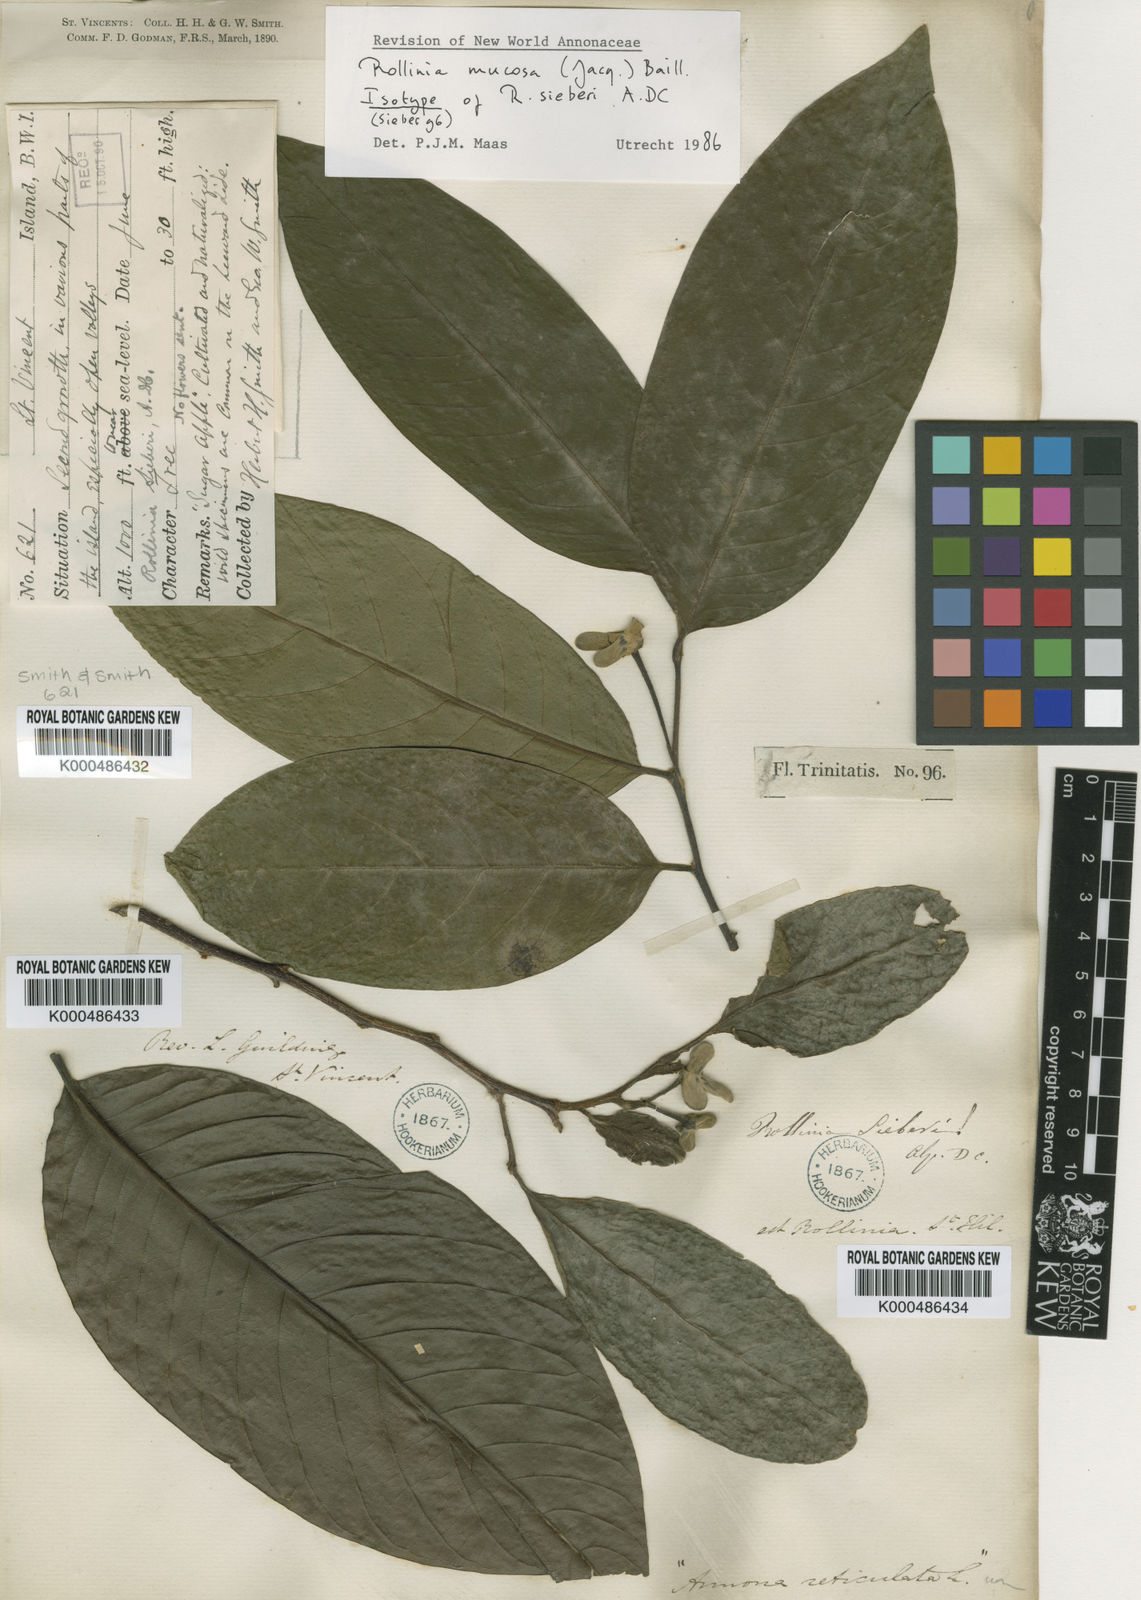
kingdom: Plantae
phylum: Tracheophyta
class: Magnoliopsida
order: Magnoliales
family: Annonaceae
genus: Annona
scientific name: Annona mucosa
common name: Sugar apple
